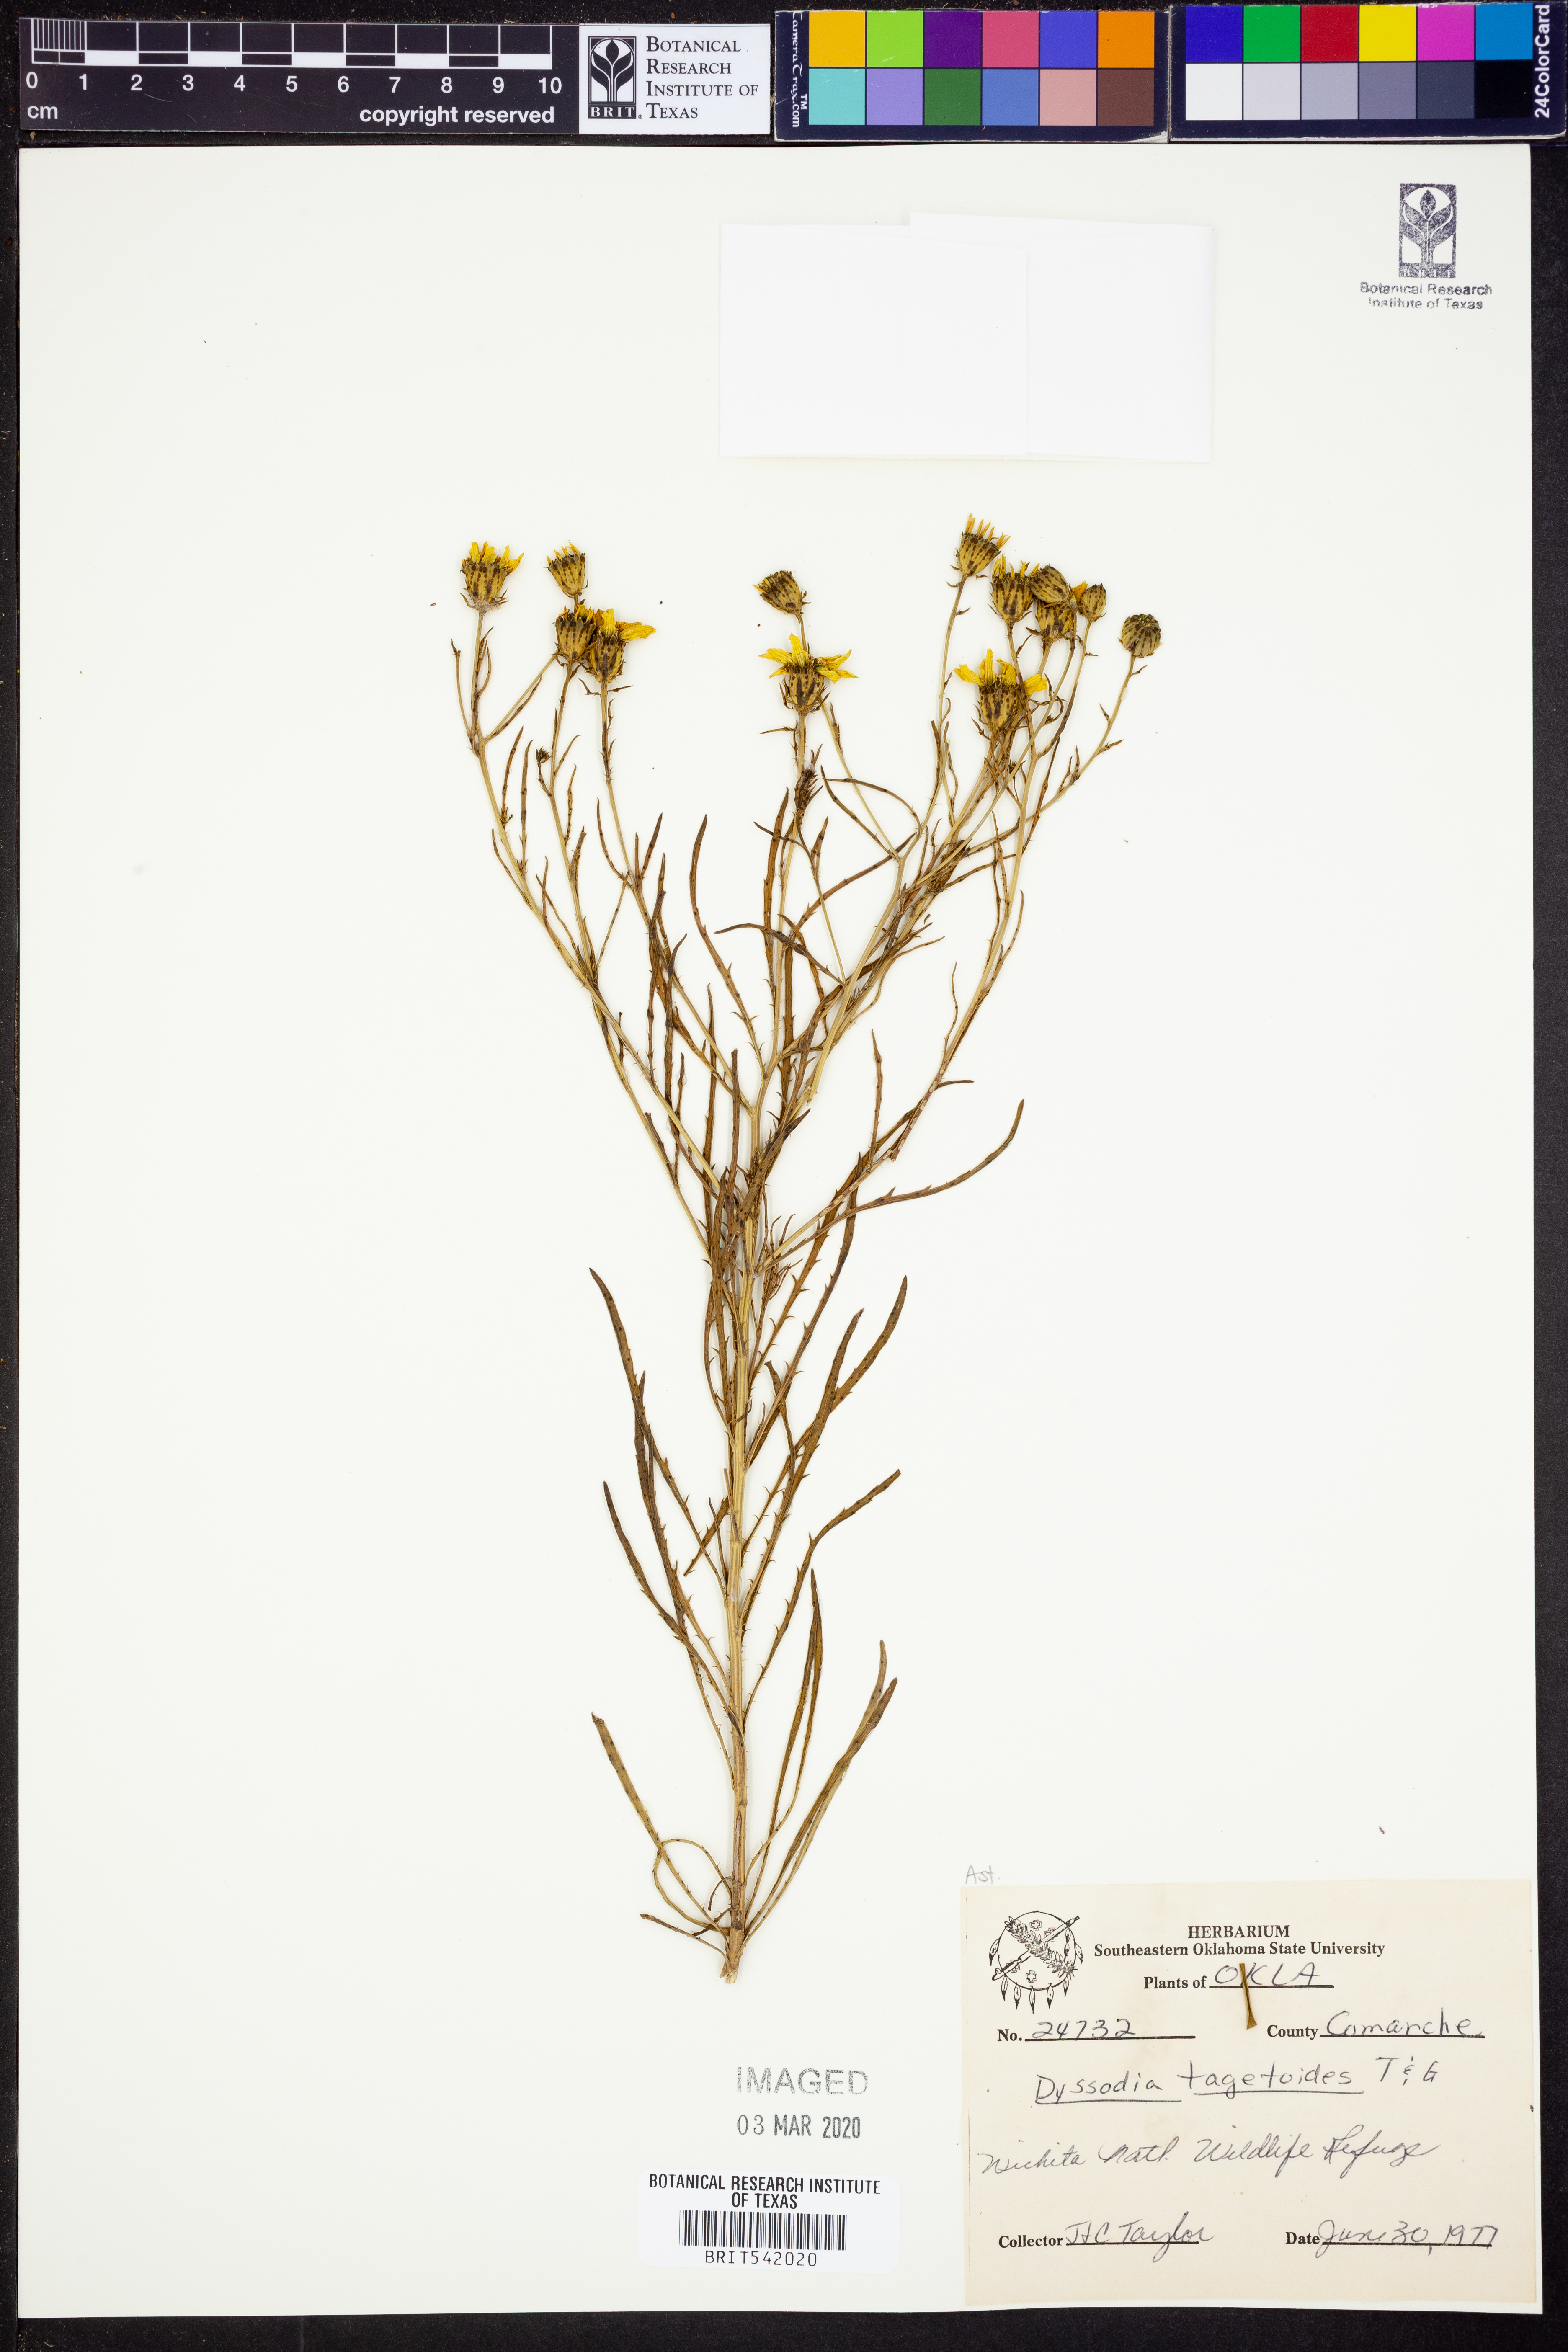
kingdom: Plantae
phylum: Tracheophyta
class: Magnoliopsida
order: Asterales
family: Asteraceae
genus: Dysodiopsis
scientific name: Dysodiopsis tagetoides
